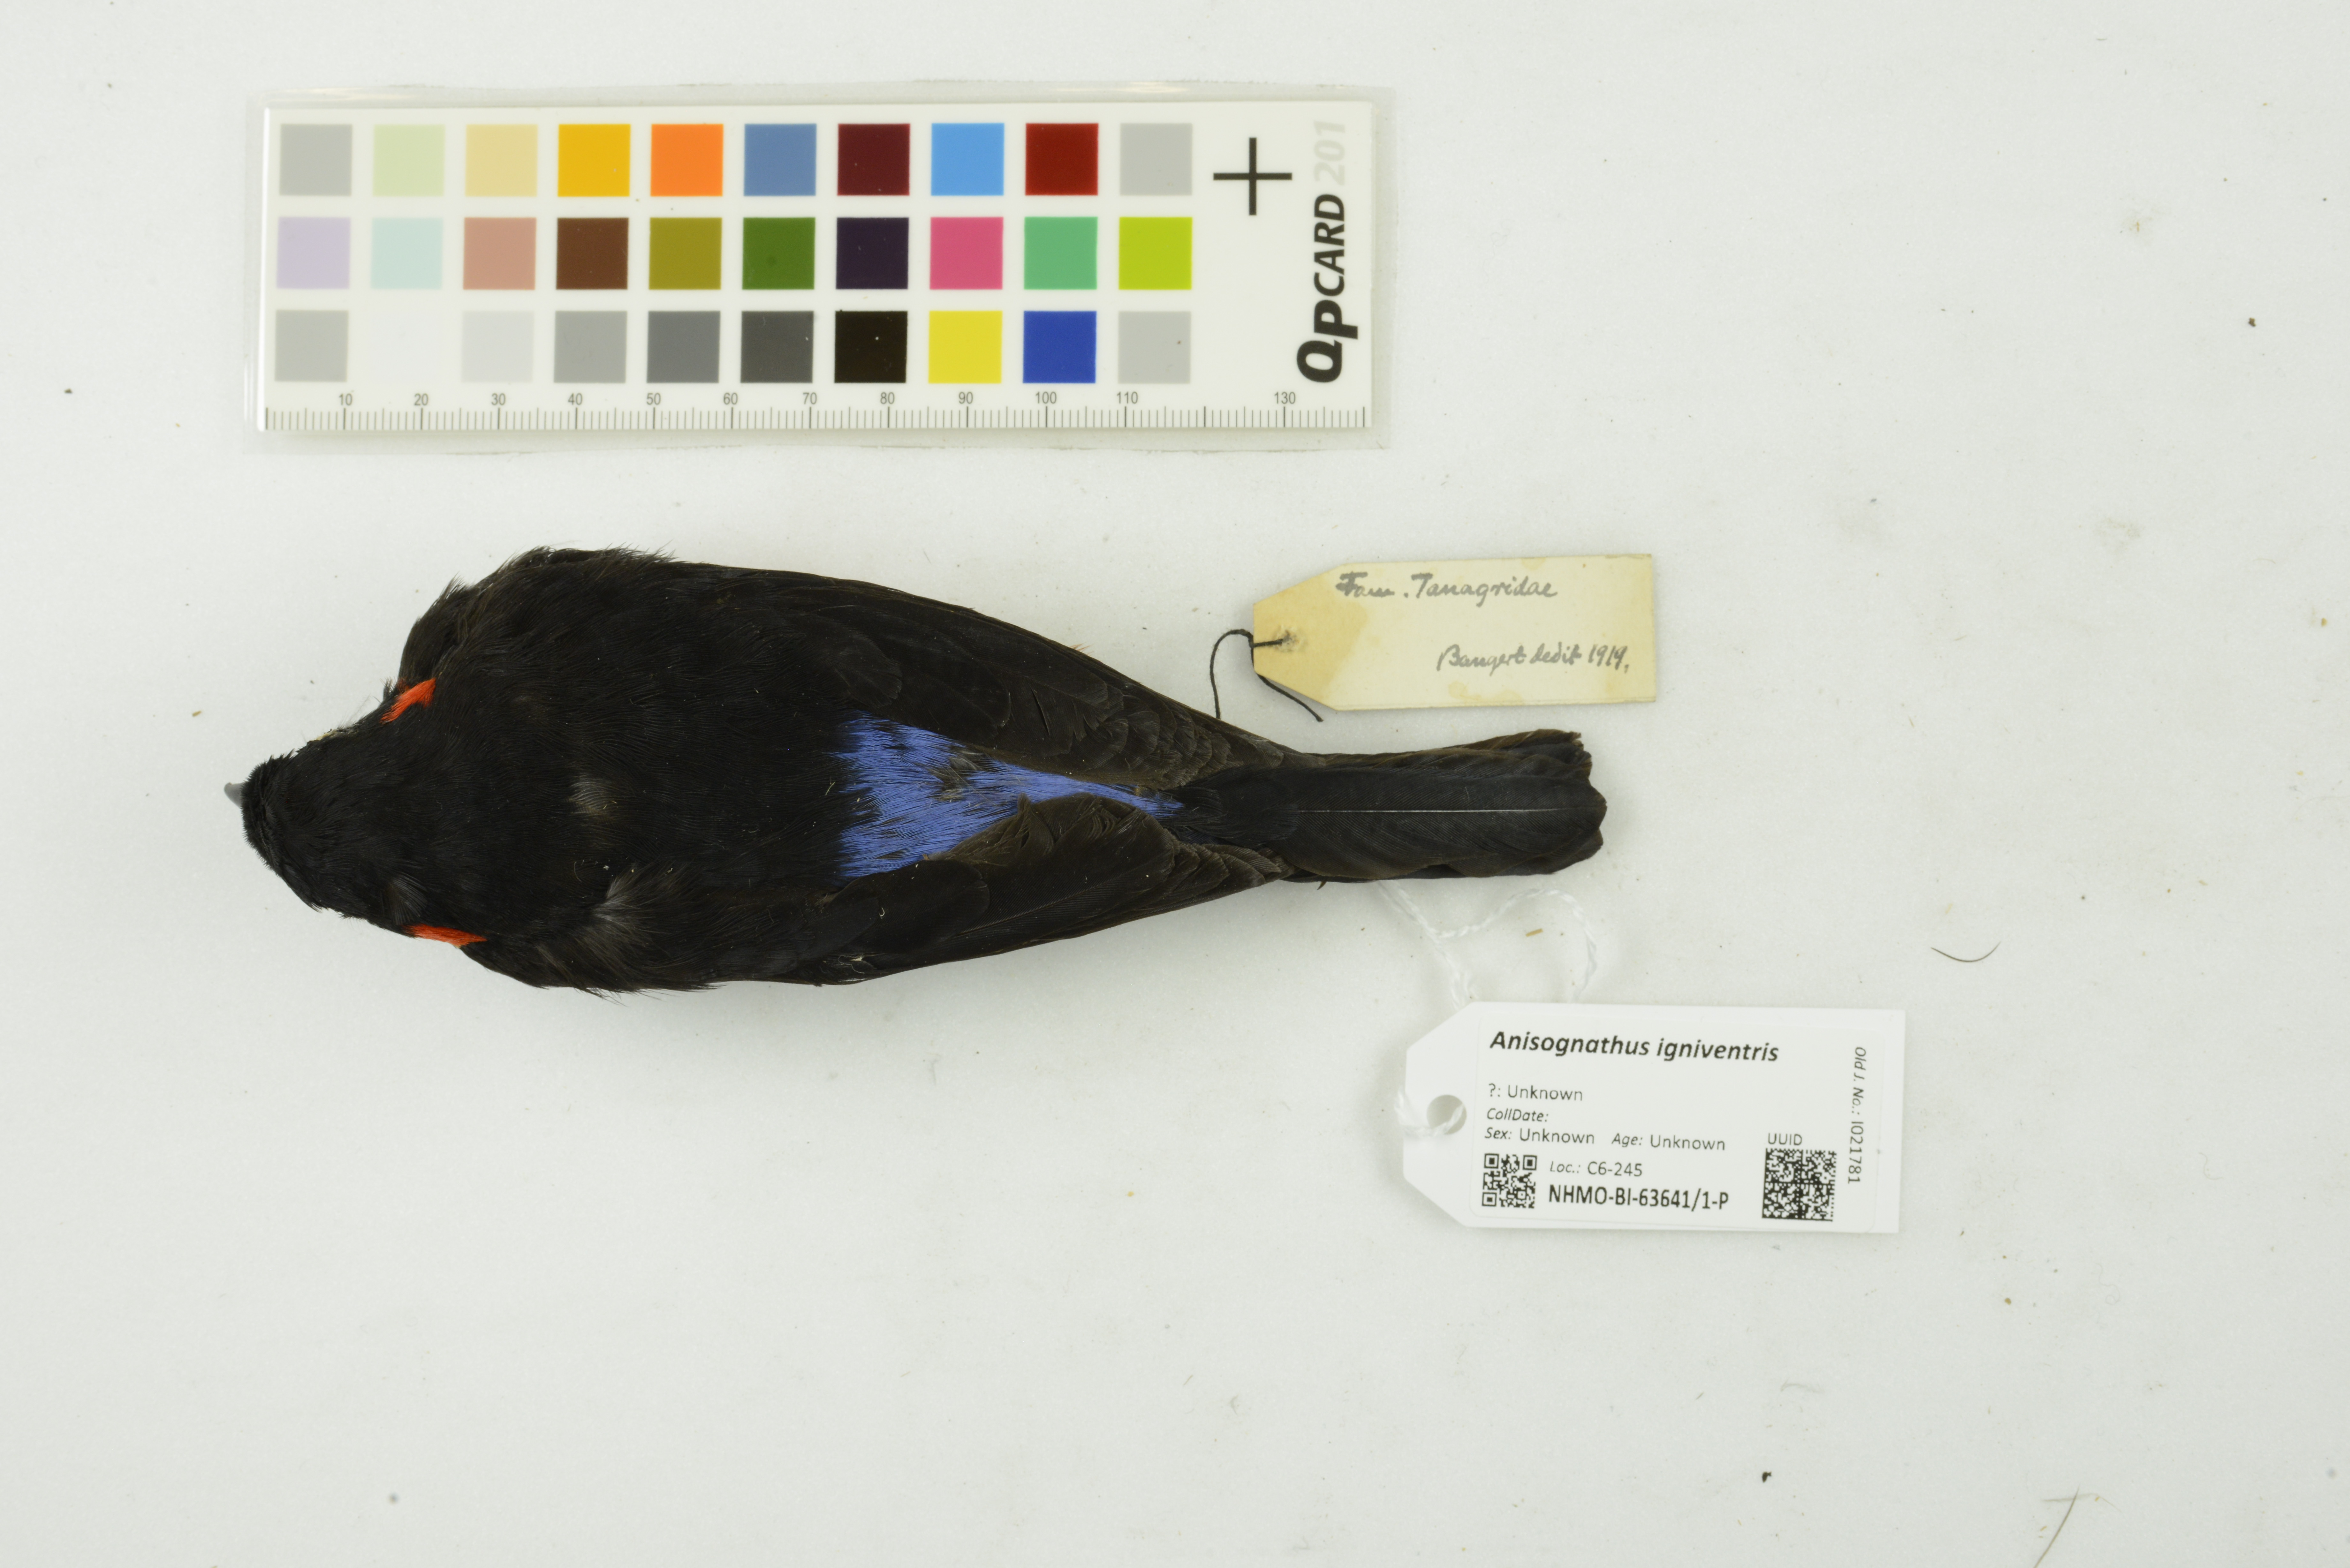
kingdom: Animalia
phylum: Chordata
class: Aves
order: Passeriformes
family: Thraupidae
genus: Anisognathus
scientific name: Anisognathus igniventris
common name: Scarlet-bellied mountain tanager
